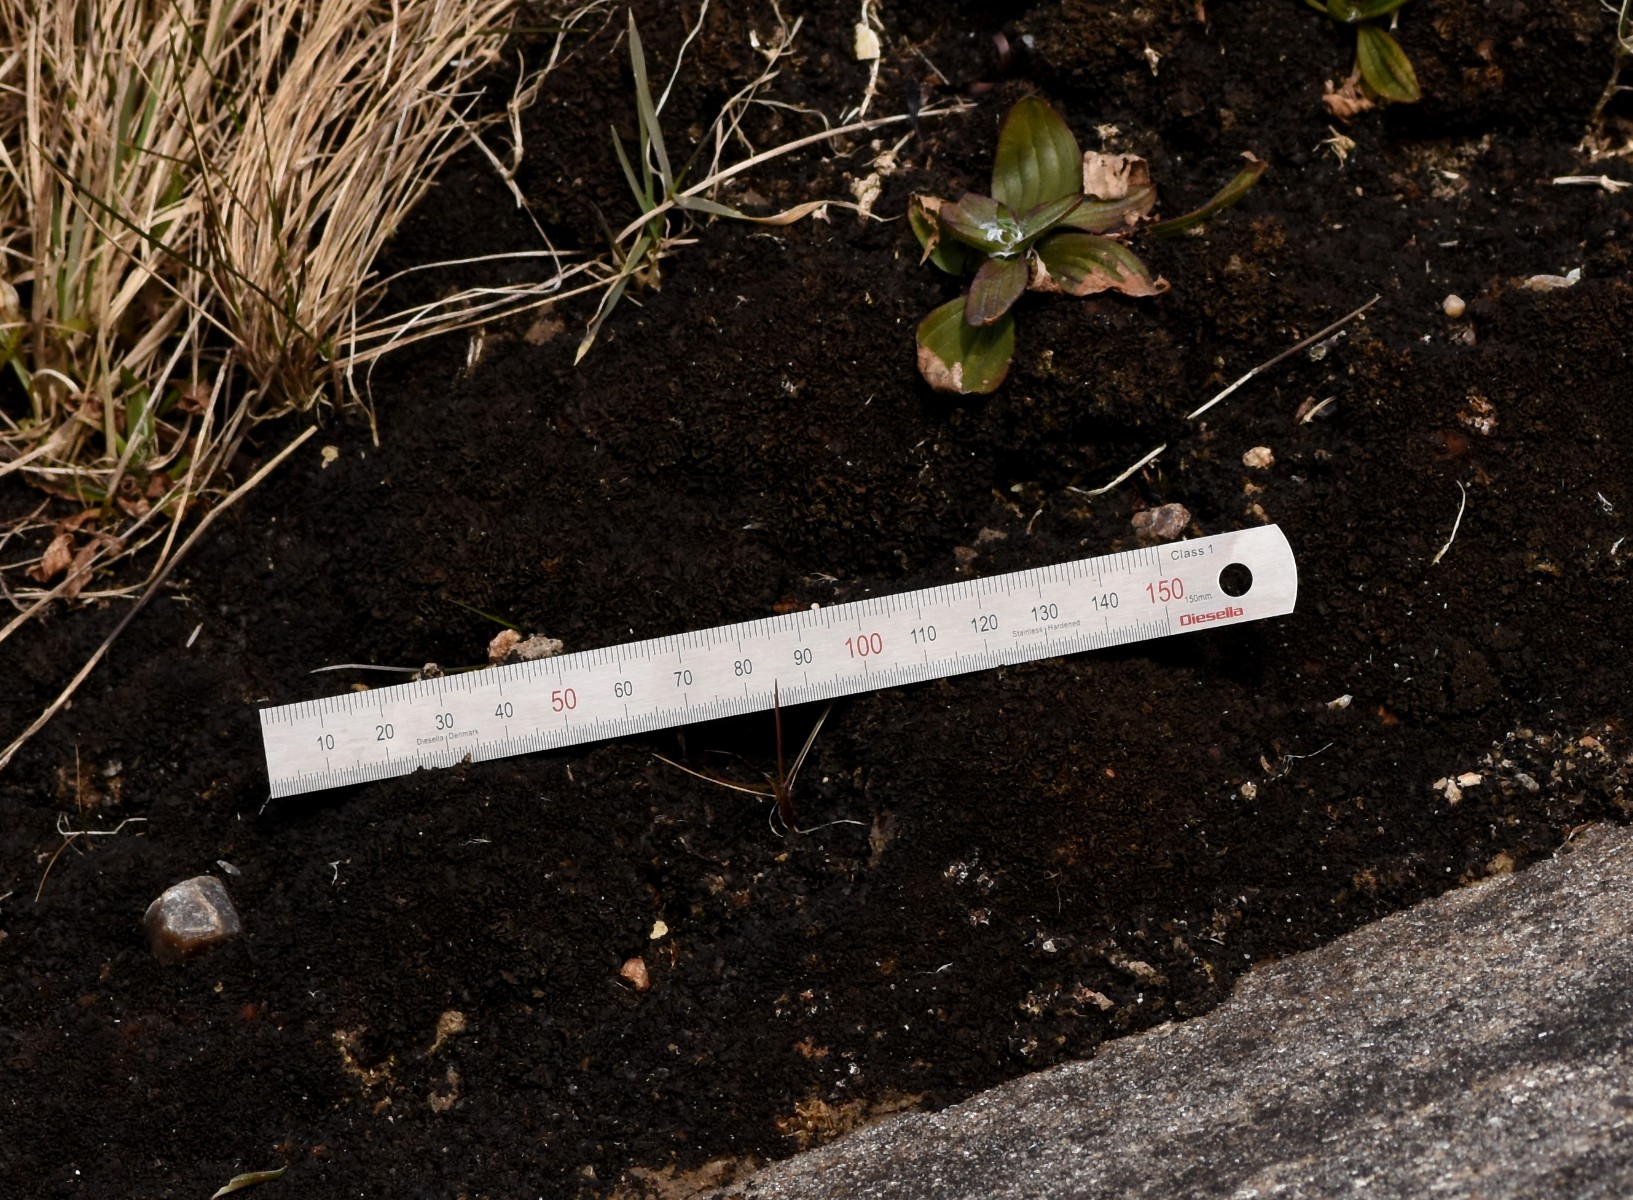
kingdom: Fungi
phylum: Ascomycota
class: Lecanoromycetes
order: Peltigerales
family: Collemataceae
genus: Blennothallia
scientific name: Blennothallia crispa
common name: kruset bævrelav
